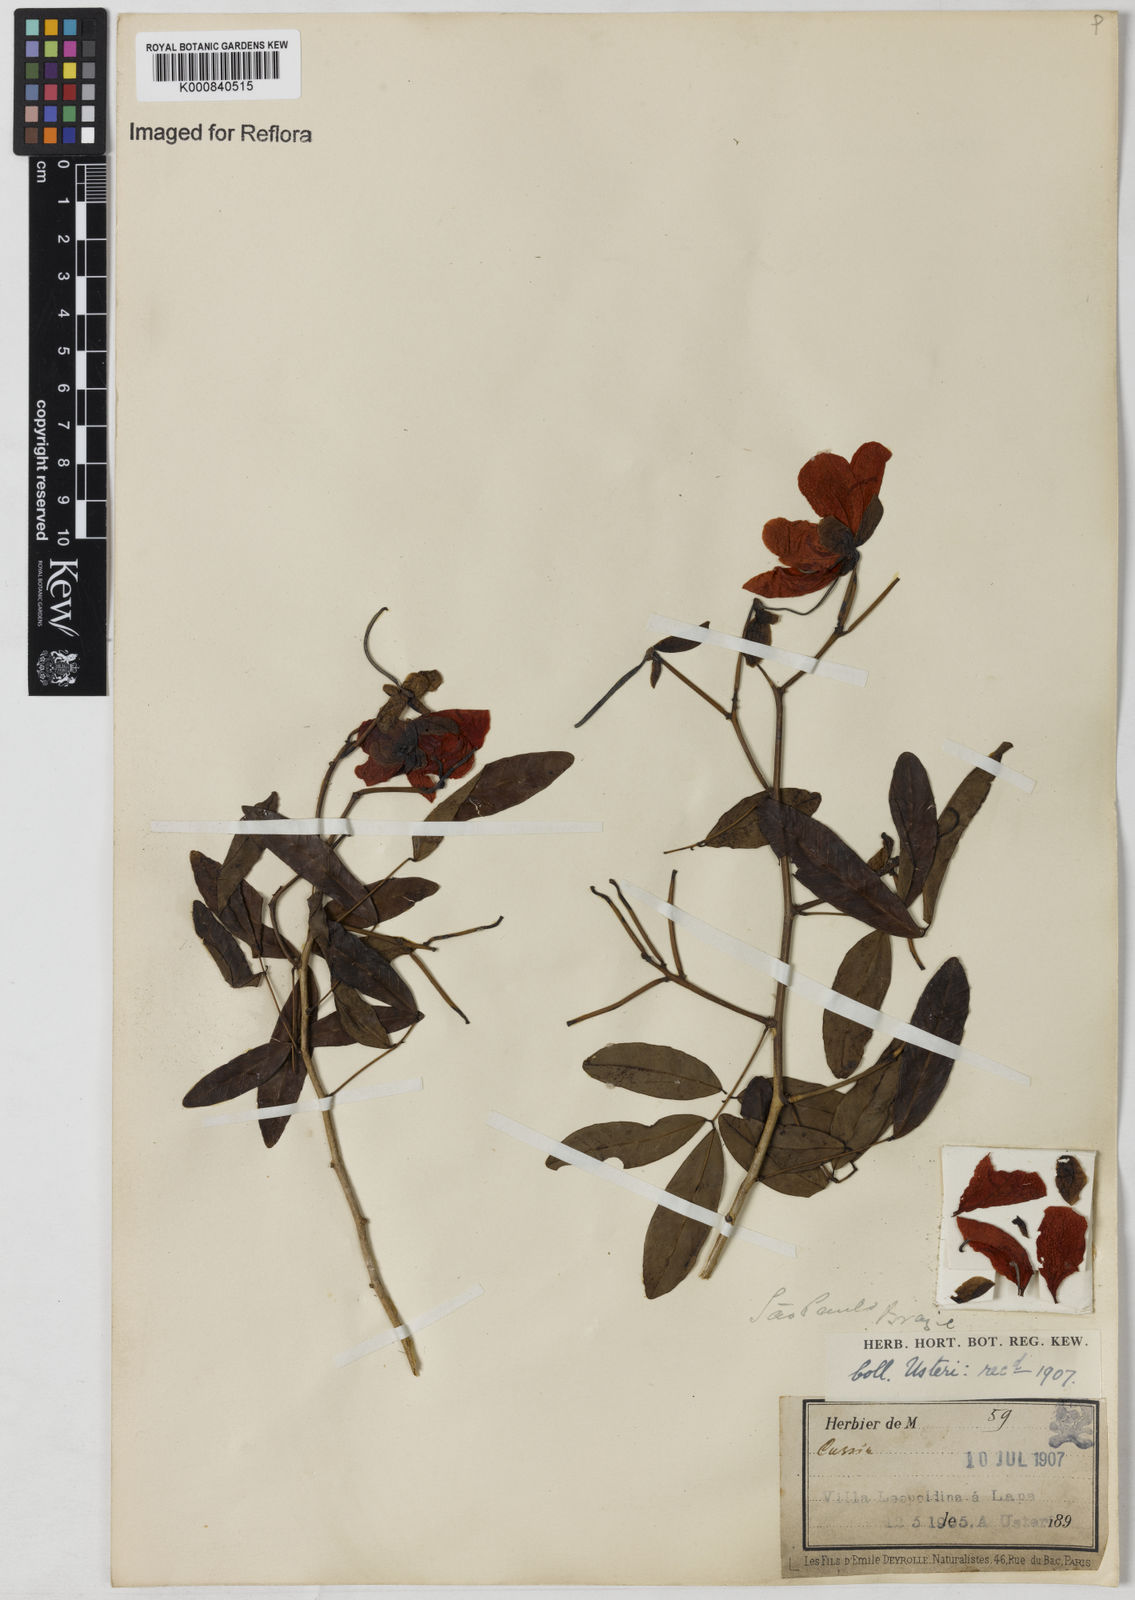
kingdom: Plantae
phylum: Tracheophyta
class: Magnoliopsida
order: Fabales
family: Fabaceae
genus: Senna
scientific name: Senna splendida
